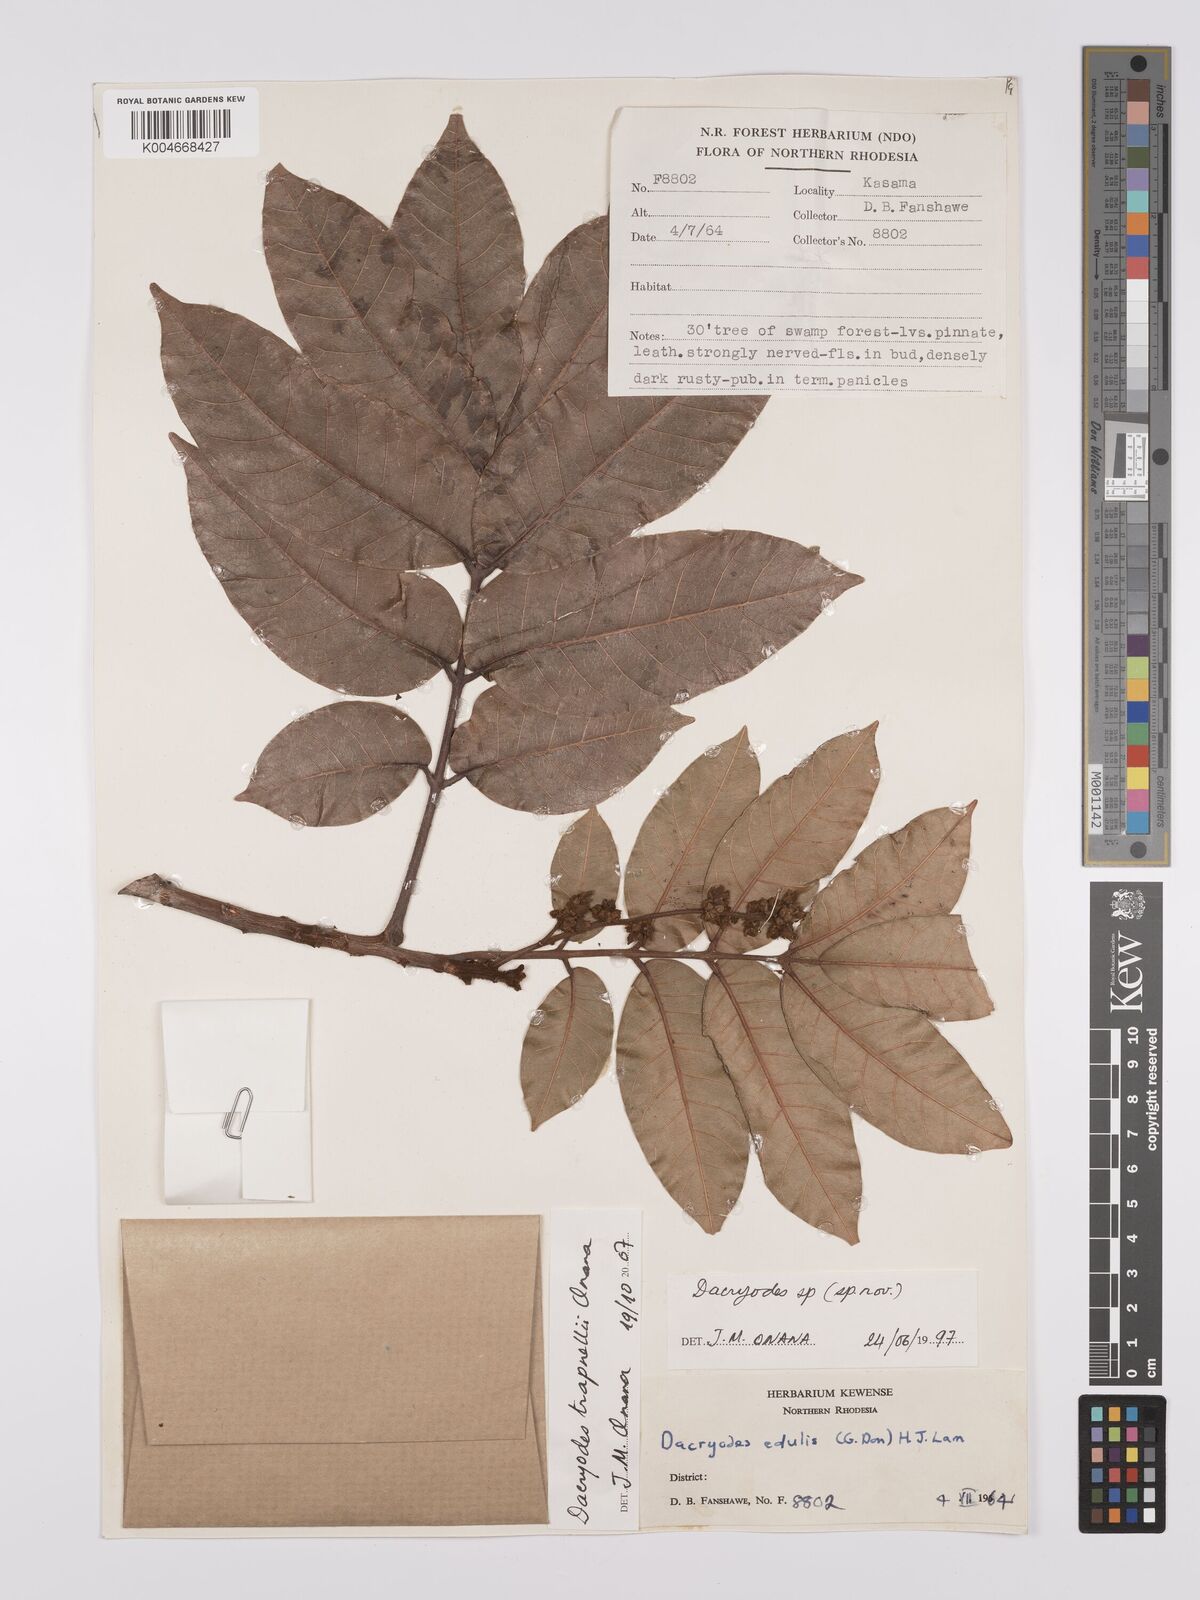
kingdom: Plantae
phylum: Tracheophyta
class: Magnoliopsida
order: Sapindales
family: Burseraceae
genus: Pachylobus
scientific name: Pachylobus trapnellii
